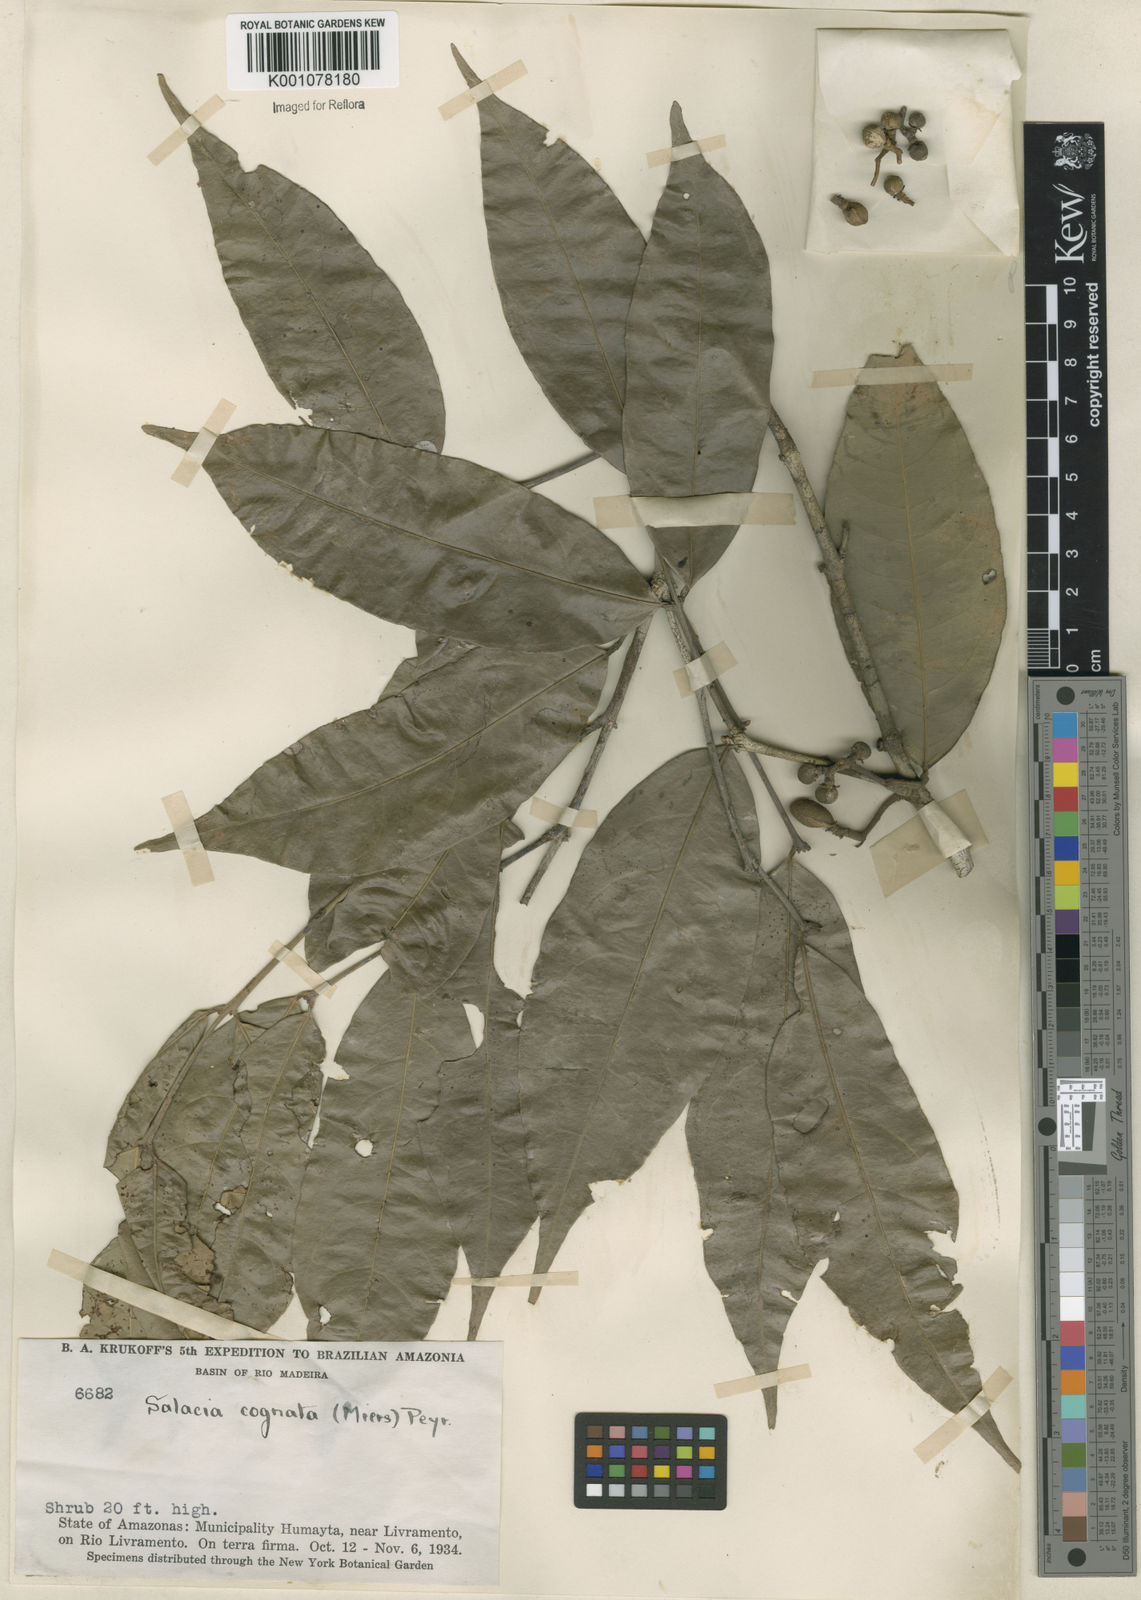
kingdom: Plantae
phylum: Tracheophyta
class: Magnoliopsida
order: Celastrales
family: Celastraceae
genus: Cheiloclinium
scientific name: Cheiloclinium cognatum
